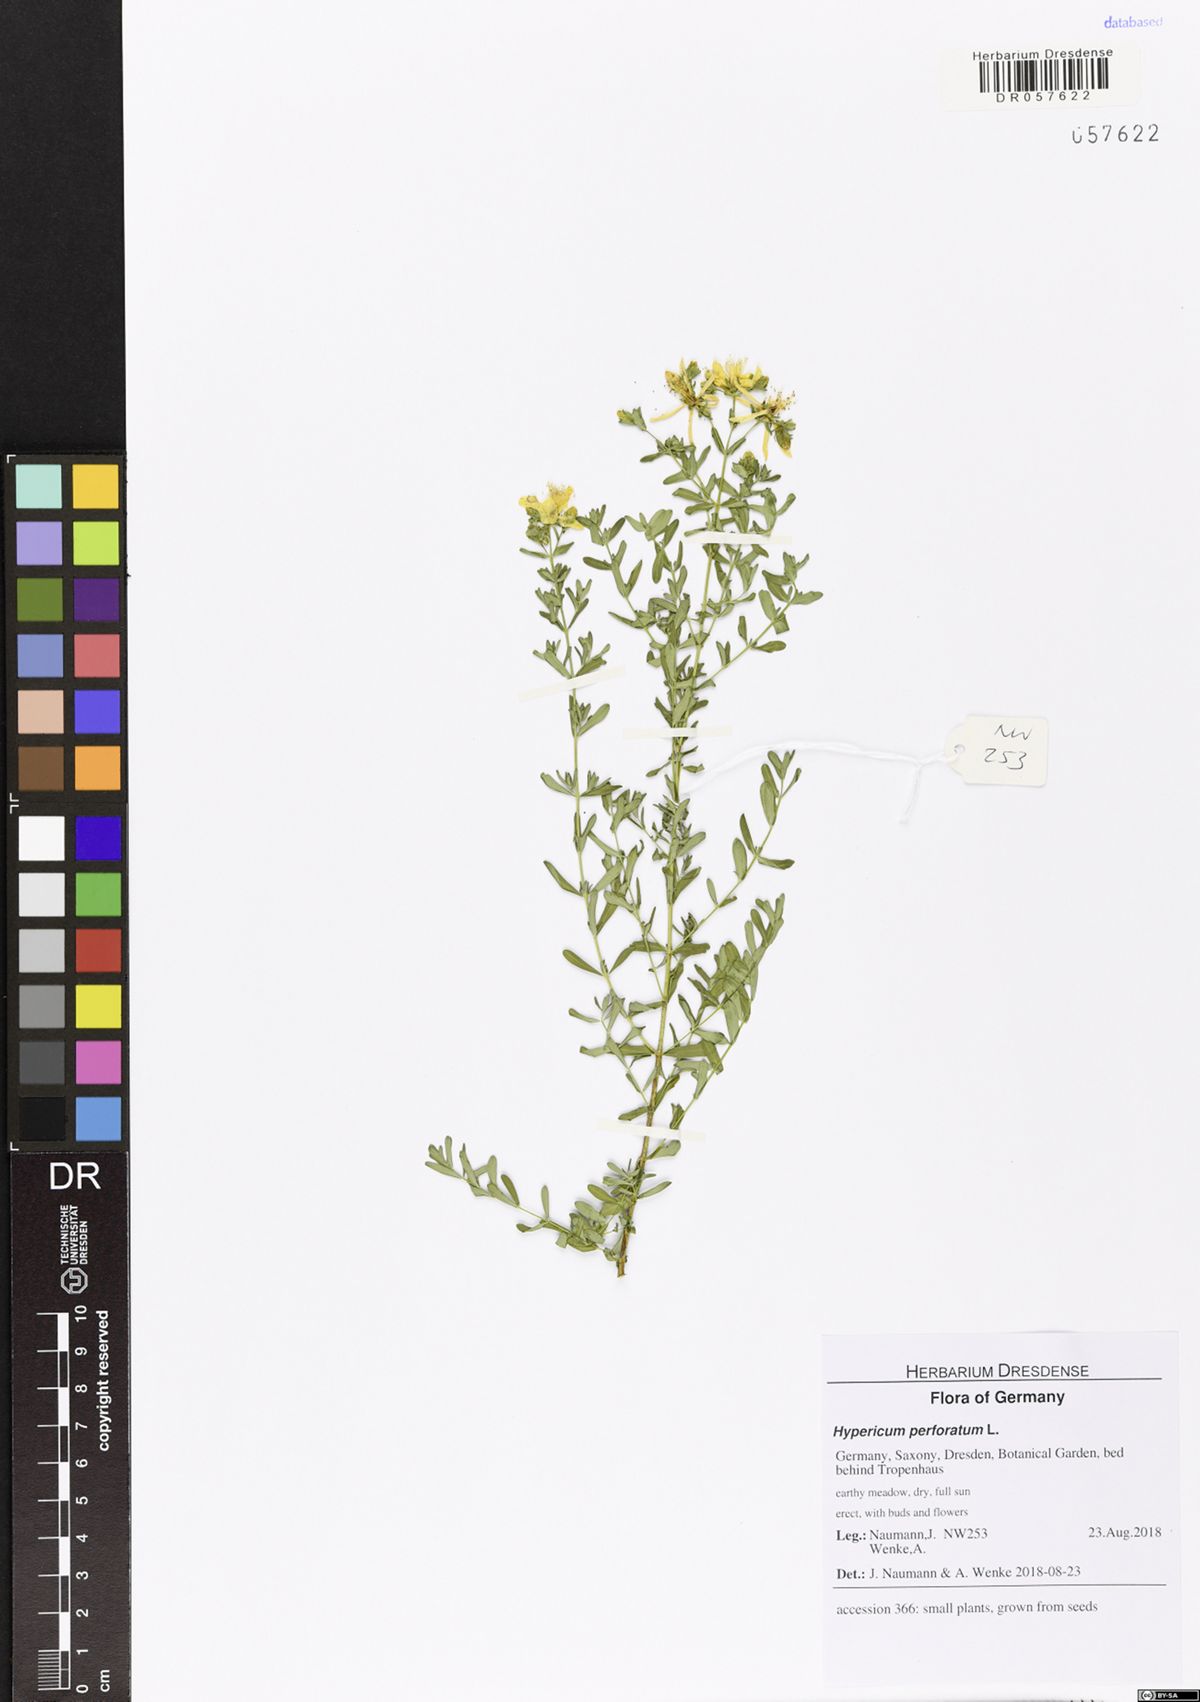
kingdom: Plantae
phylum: Tracheophyta
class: Magnoliopsida
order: Malpighiales
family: Hypericaceae
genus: Hypericum
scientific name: Hypericum perforatum
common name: Common st. johnswort
